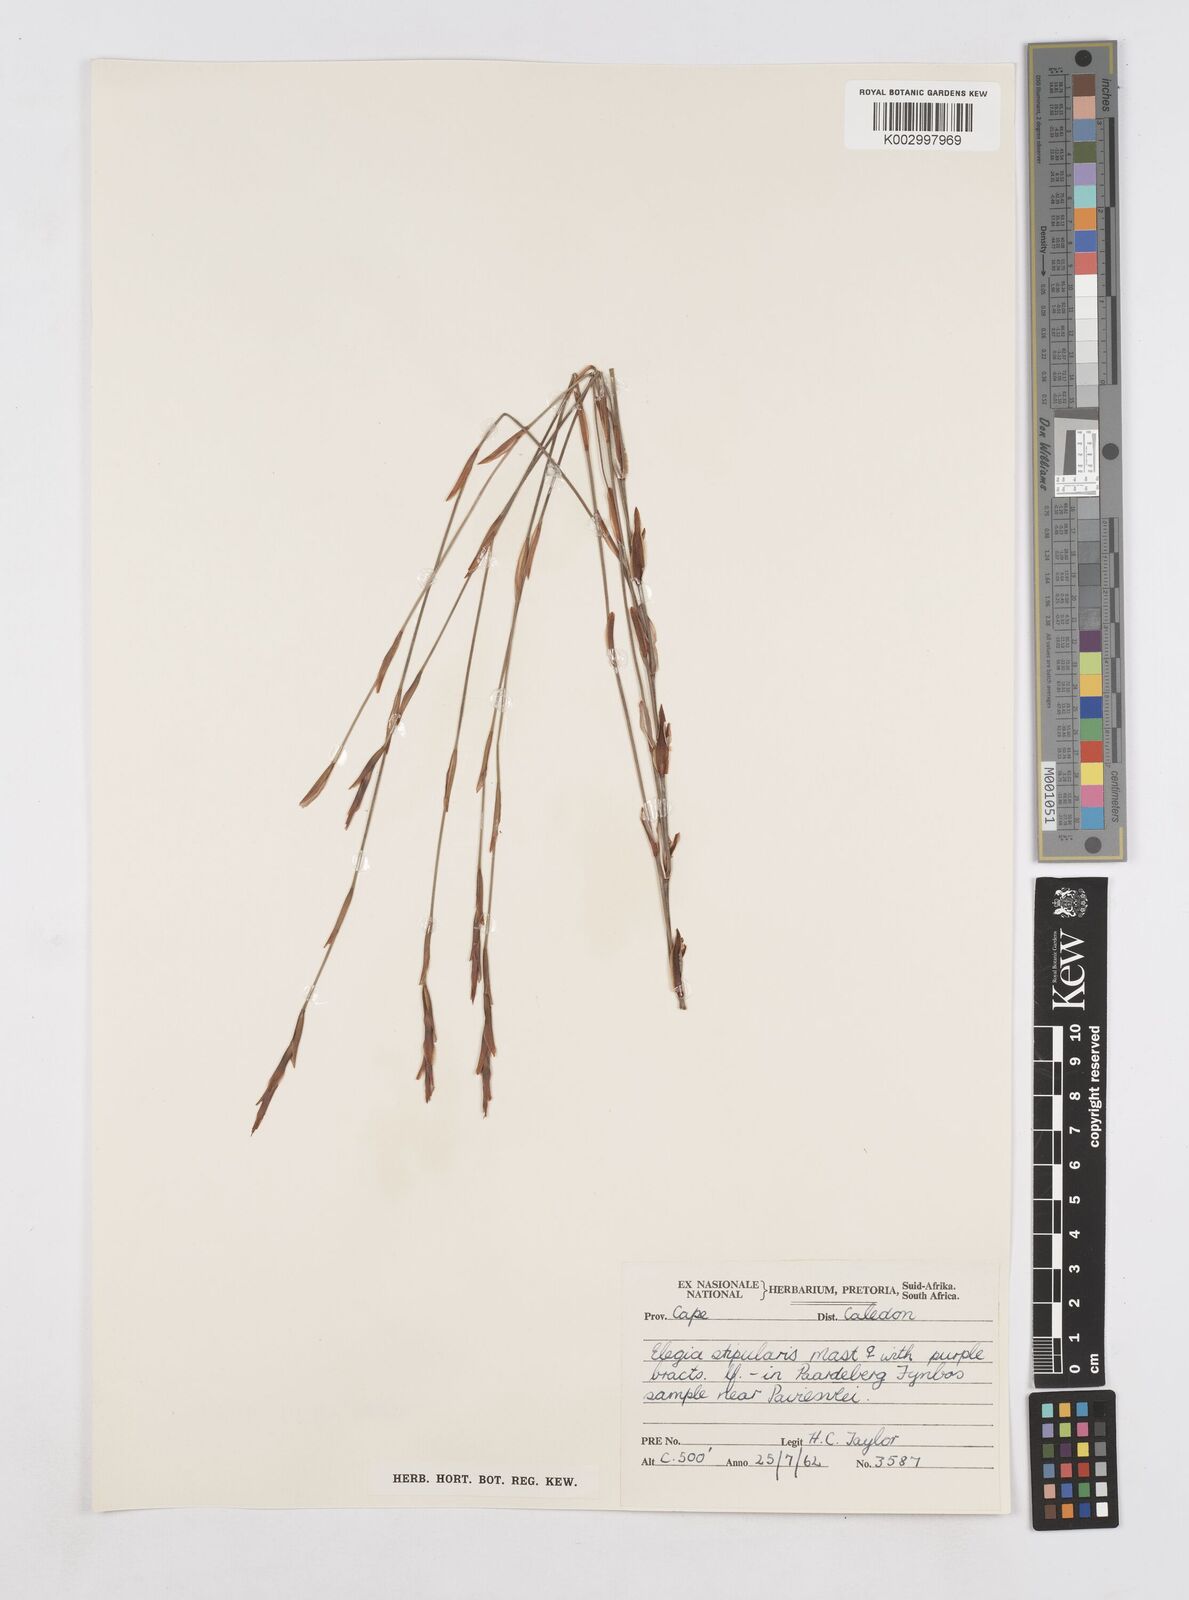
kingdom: Plantae
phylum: Tracheophyta
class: Liliopsida
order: Poales
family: Restionaceae
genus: Elegia
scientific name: Elegia stipularis
